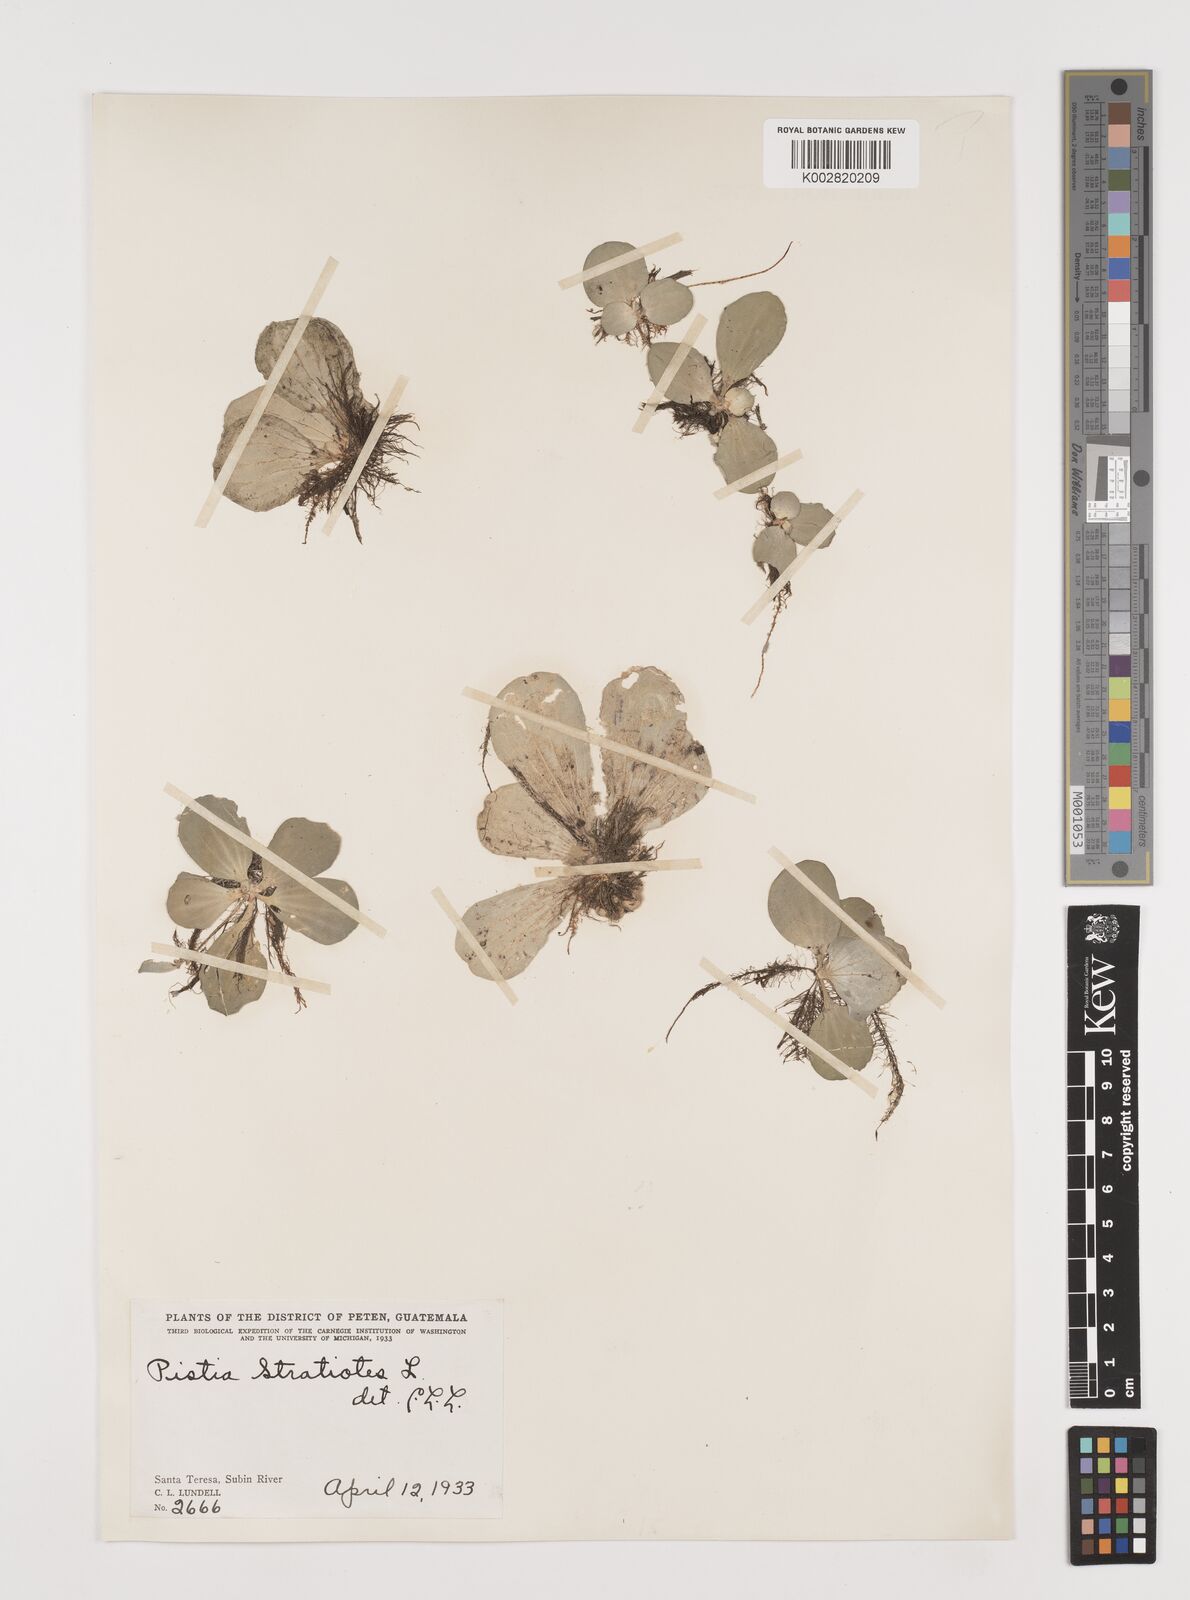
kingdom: Plantae
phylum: Tracheophyta
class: Liliopsida
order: Alismatales
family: Araceae
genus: Pistia
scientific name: Pistia stratiotes
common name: Water lettuce
